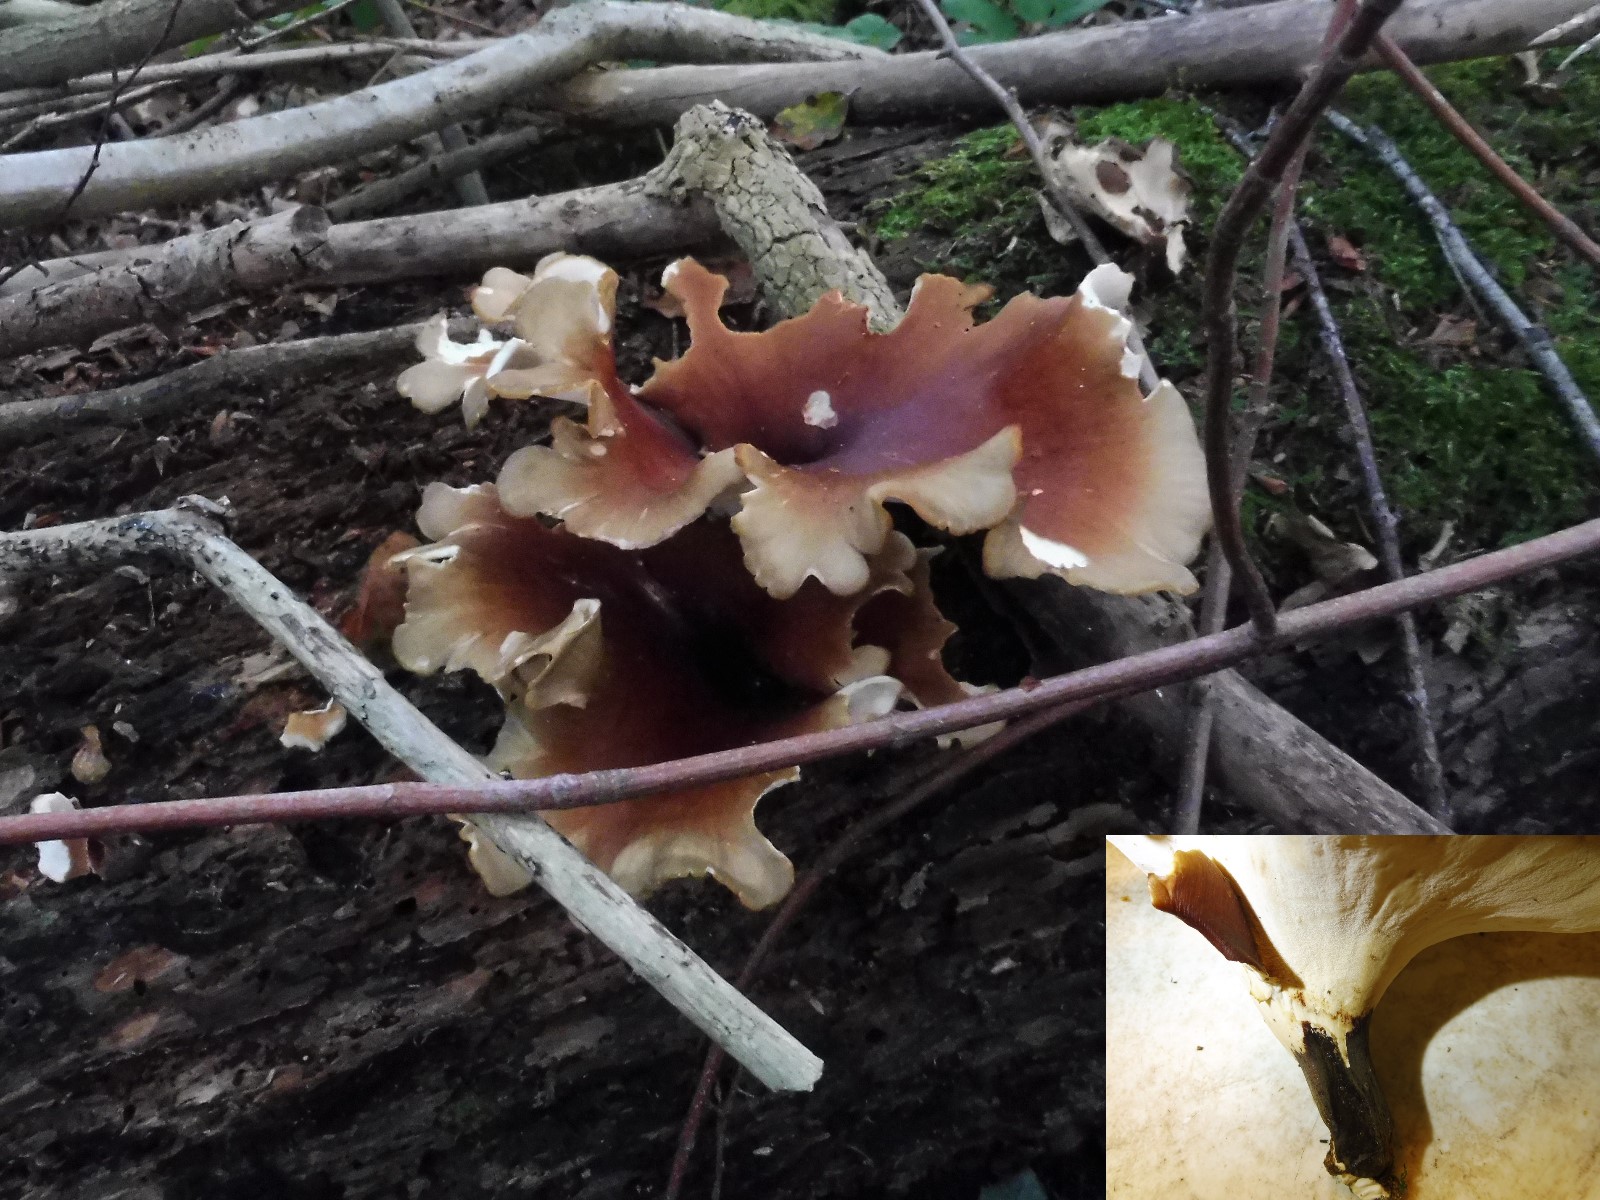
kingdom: Fungi
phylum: Basidiomycota
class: Agaricomycetes
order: Polyporales
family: Polyporaceae
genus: Picipes
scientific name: Picipes badius
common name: kastaniebrun stilkporesvamp
